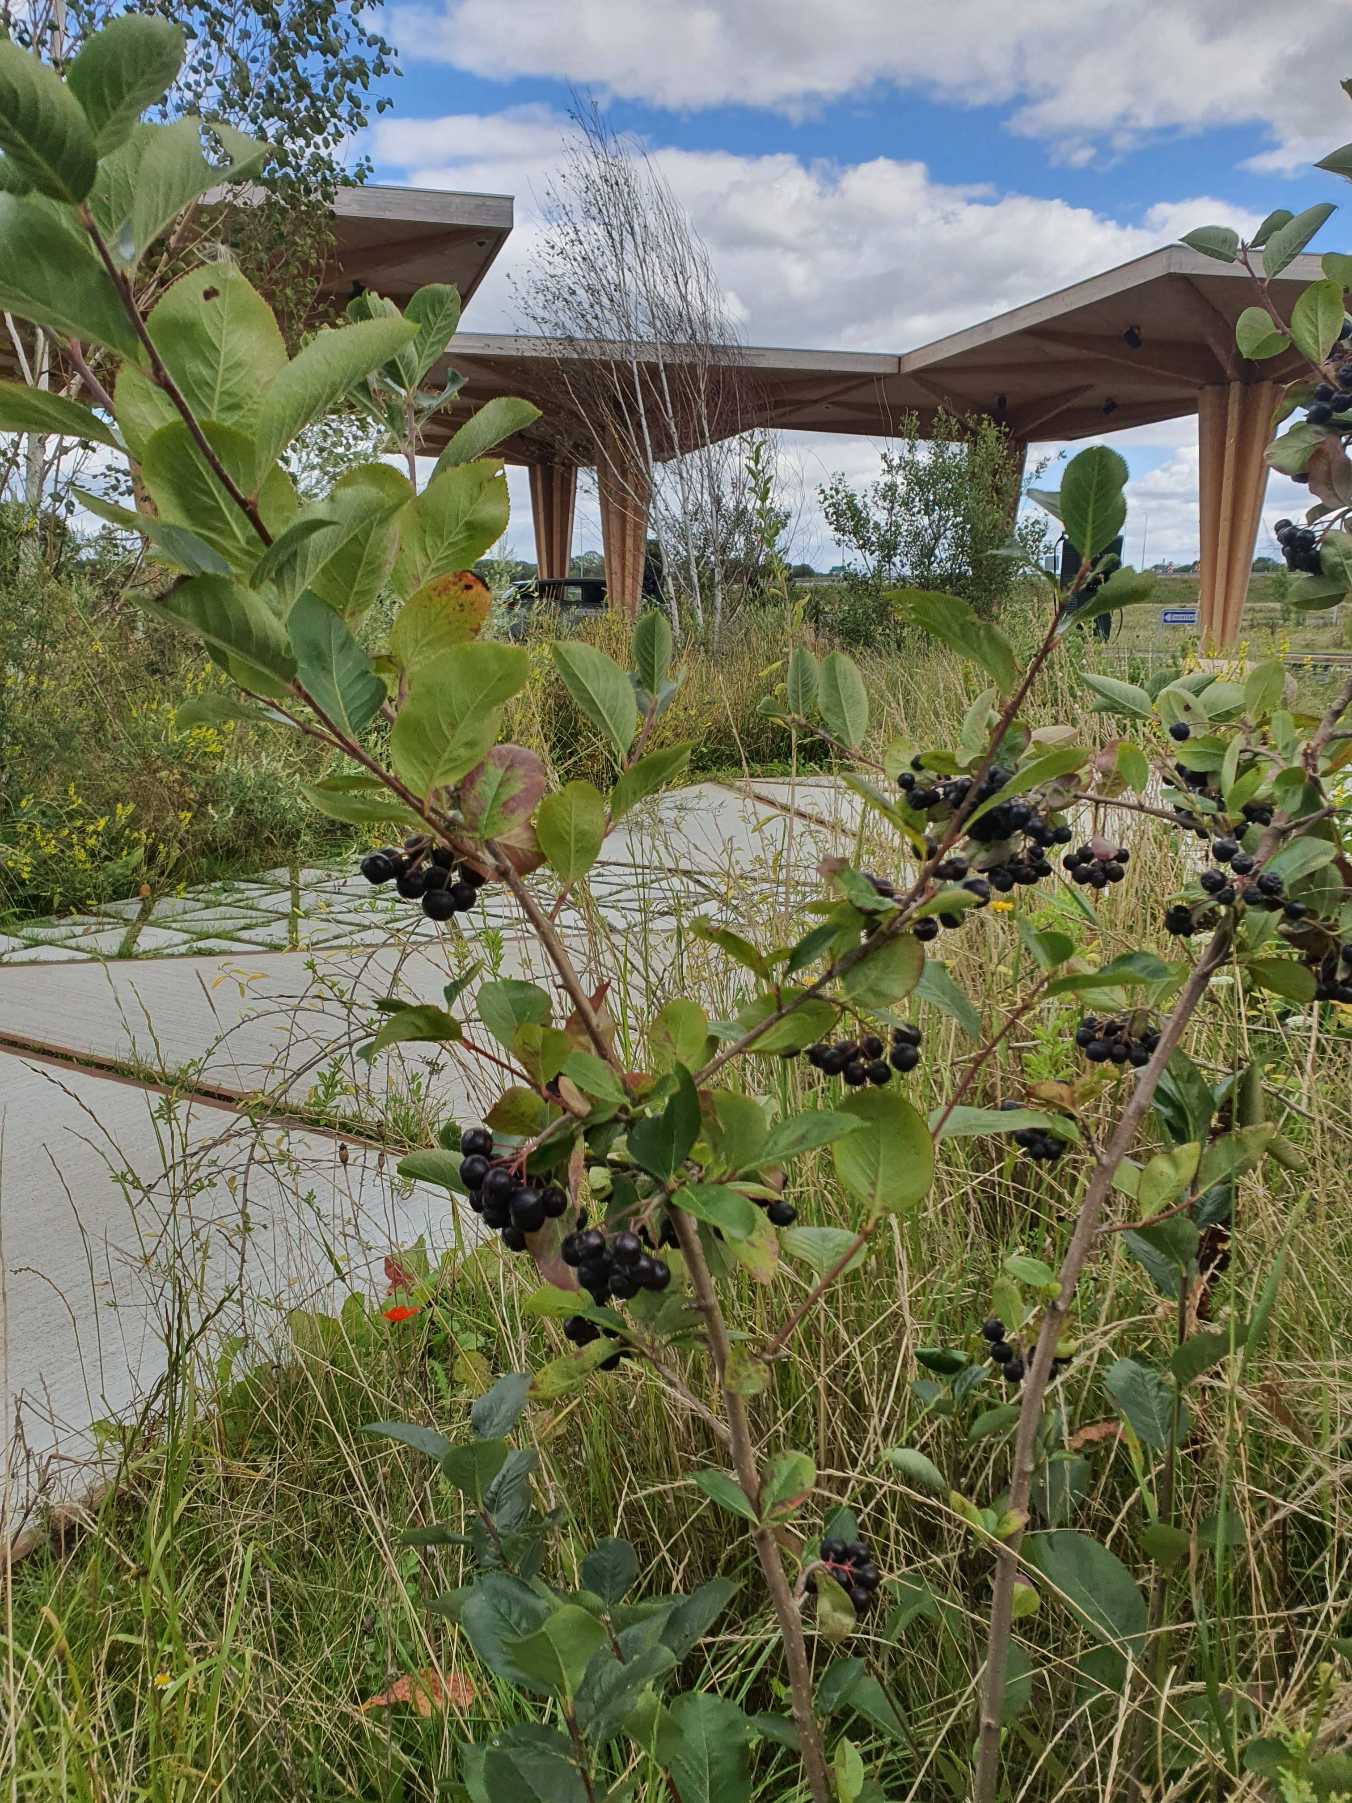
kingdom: Plantae
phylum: Tracheophyta
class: Magnoliopsida
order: Rosales
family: Rosaceae
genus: Aronia
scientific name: Aronia melanocarpa
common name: Sortfrugtet surbær
